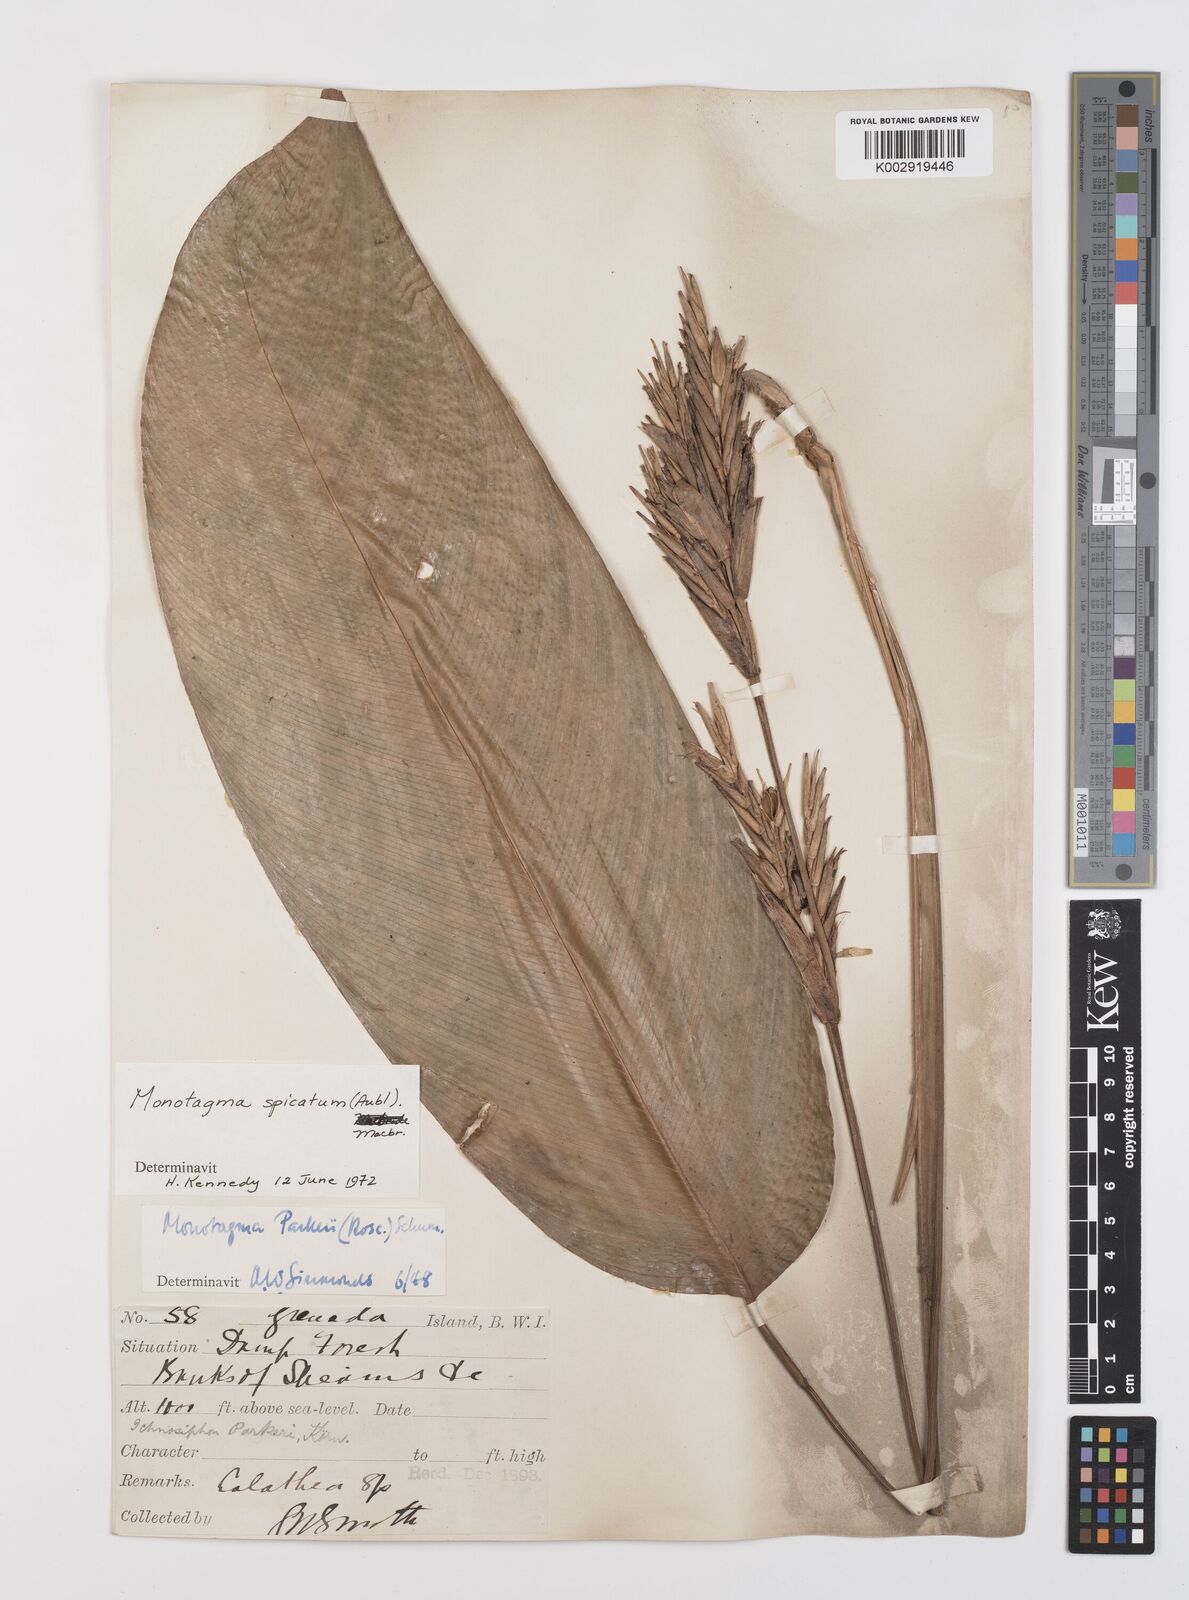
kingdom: Plantae
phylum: Tracheophyta
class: Liliopsida
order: Zingiberales
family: Marantaceae
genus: Monotagma
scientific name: Monotagma spicatum
